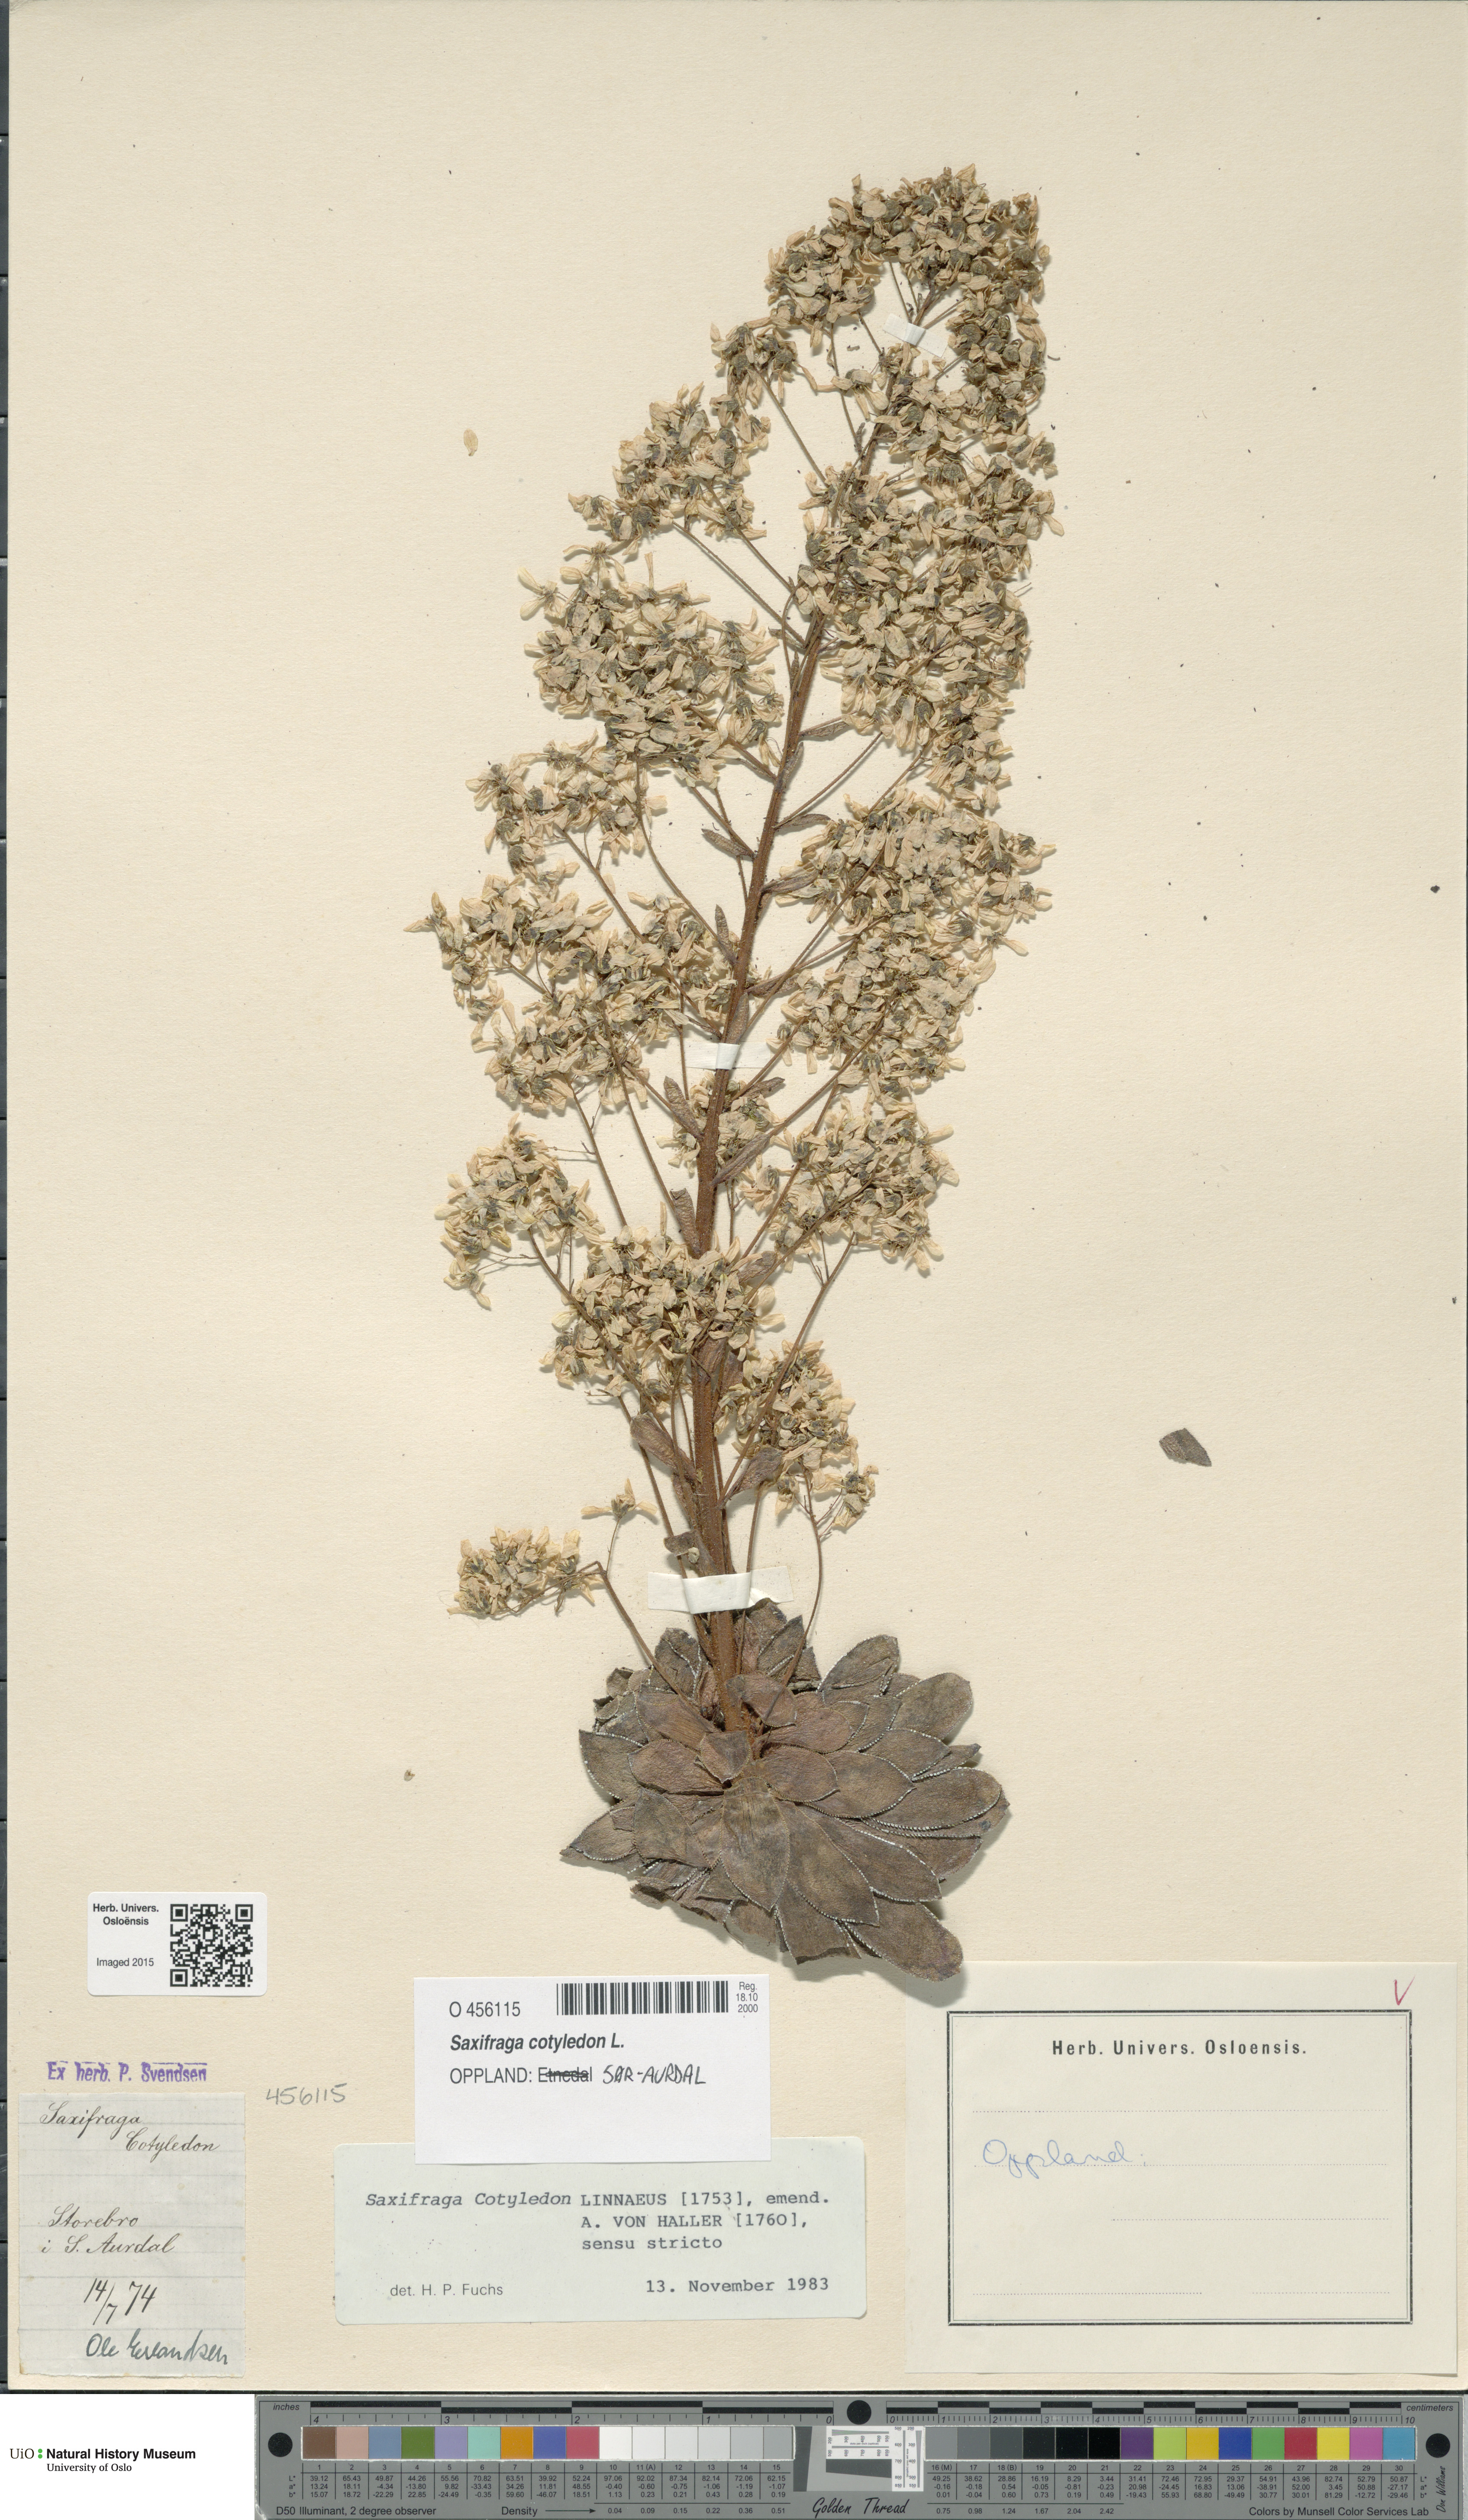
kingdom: Plantae
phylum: Tracheophyta
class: Magnoliopsida
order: Saxifragales
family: Saxifragaceae
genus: Saxifraga
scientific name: Saxifraga cotyledon
